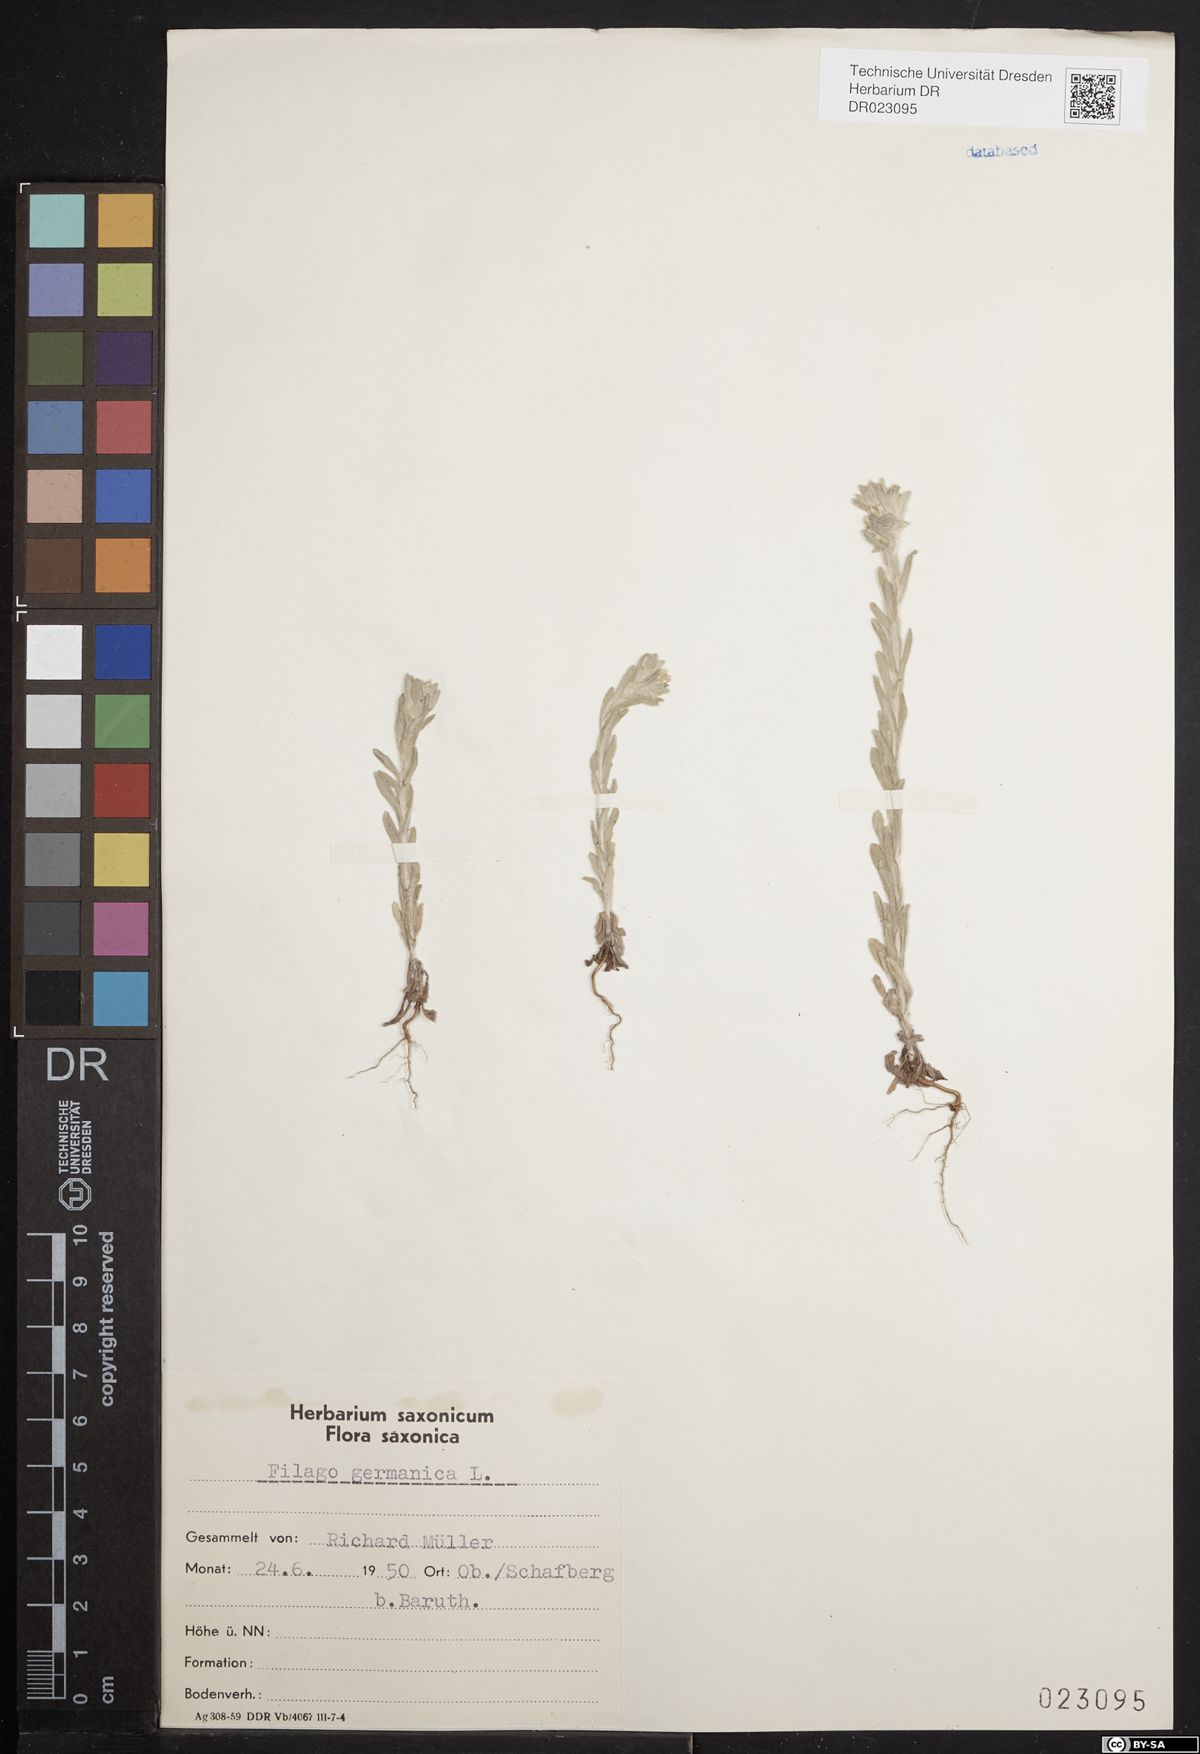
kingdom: Plantae
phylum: Tracheophyta
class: Magnoliopsida
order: Asterales
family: Asteraceae
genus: Filago
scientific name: Filago germanica
